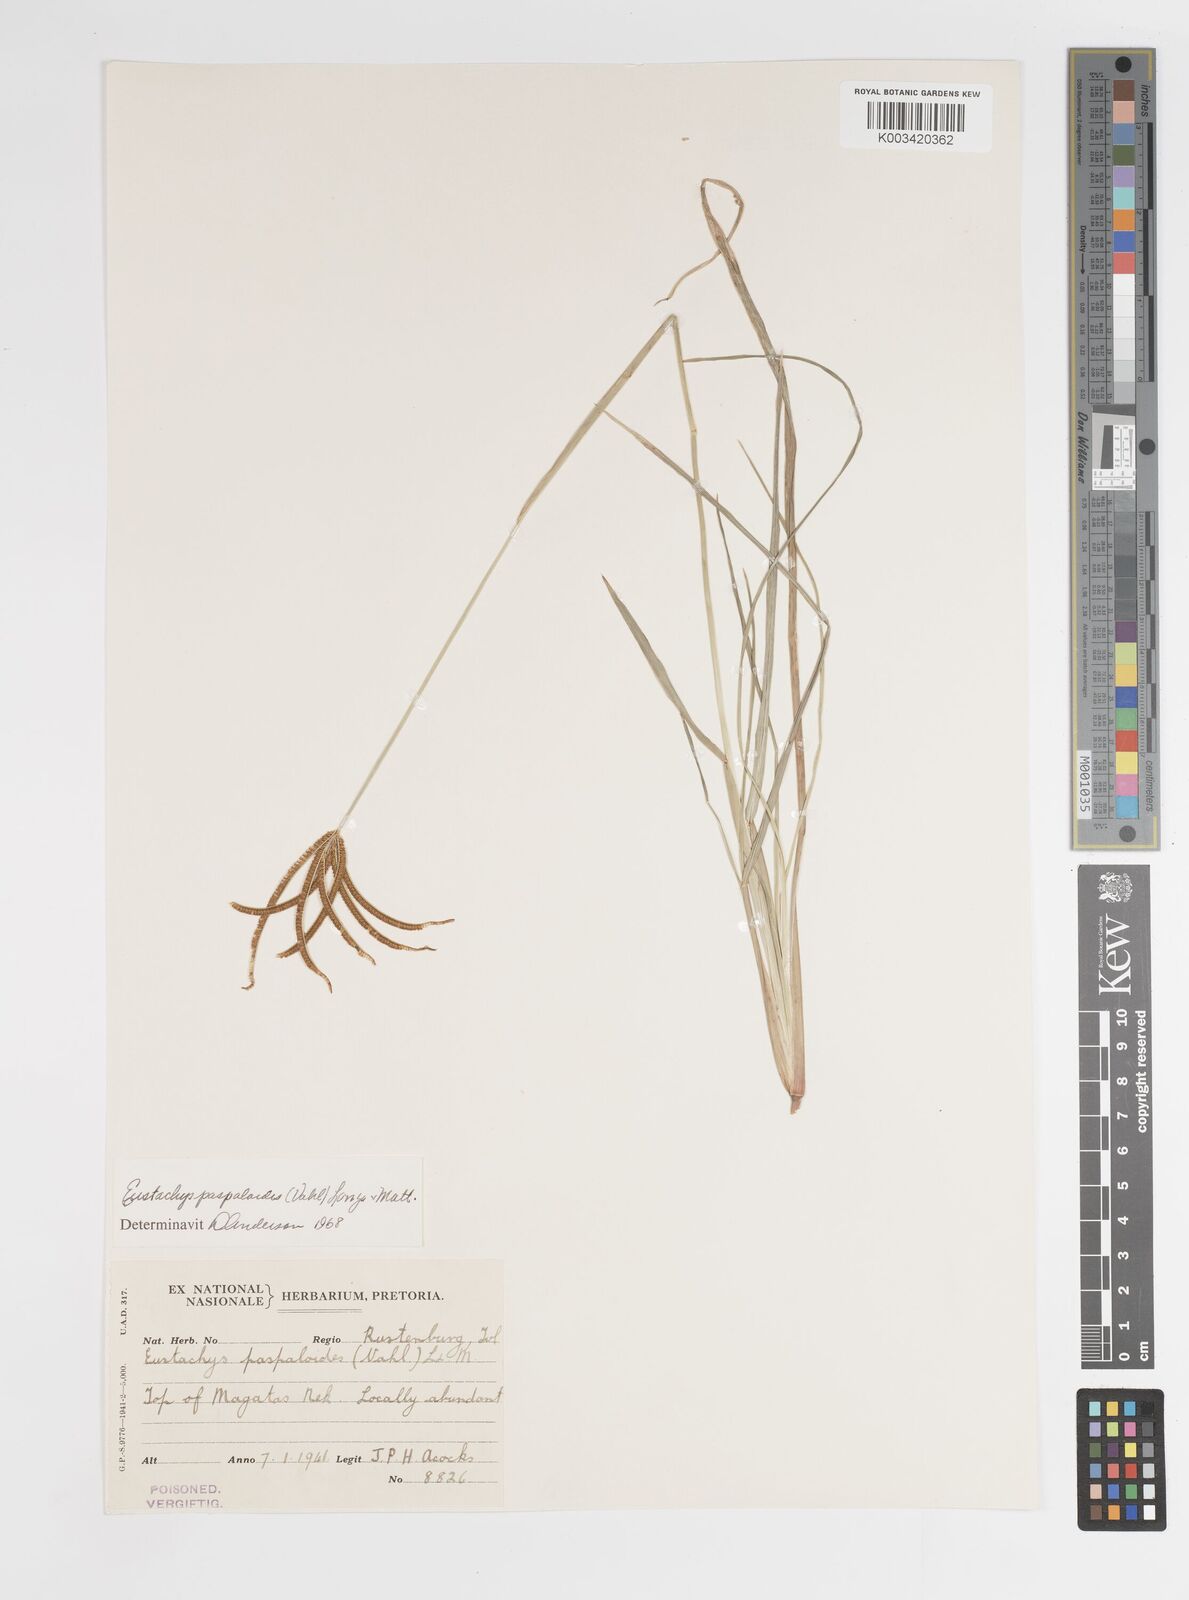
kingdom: Plantae
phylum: Tracheophyta
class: Liliopsida
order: Poales
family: Poaceae
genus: Eustachys
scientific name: Eustachys paspaloides
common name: Caribbean fingergrass
